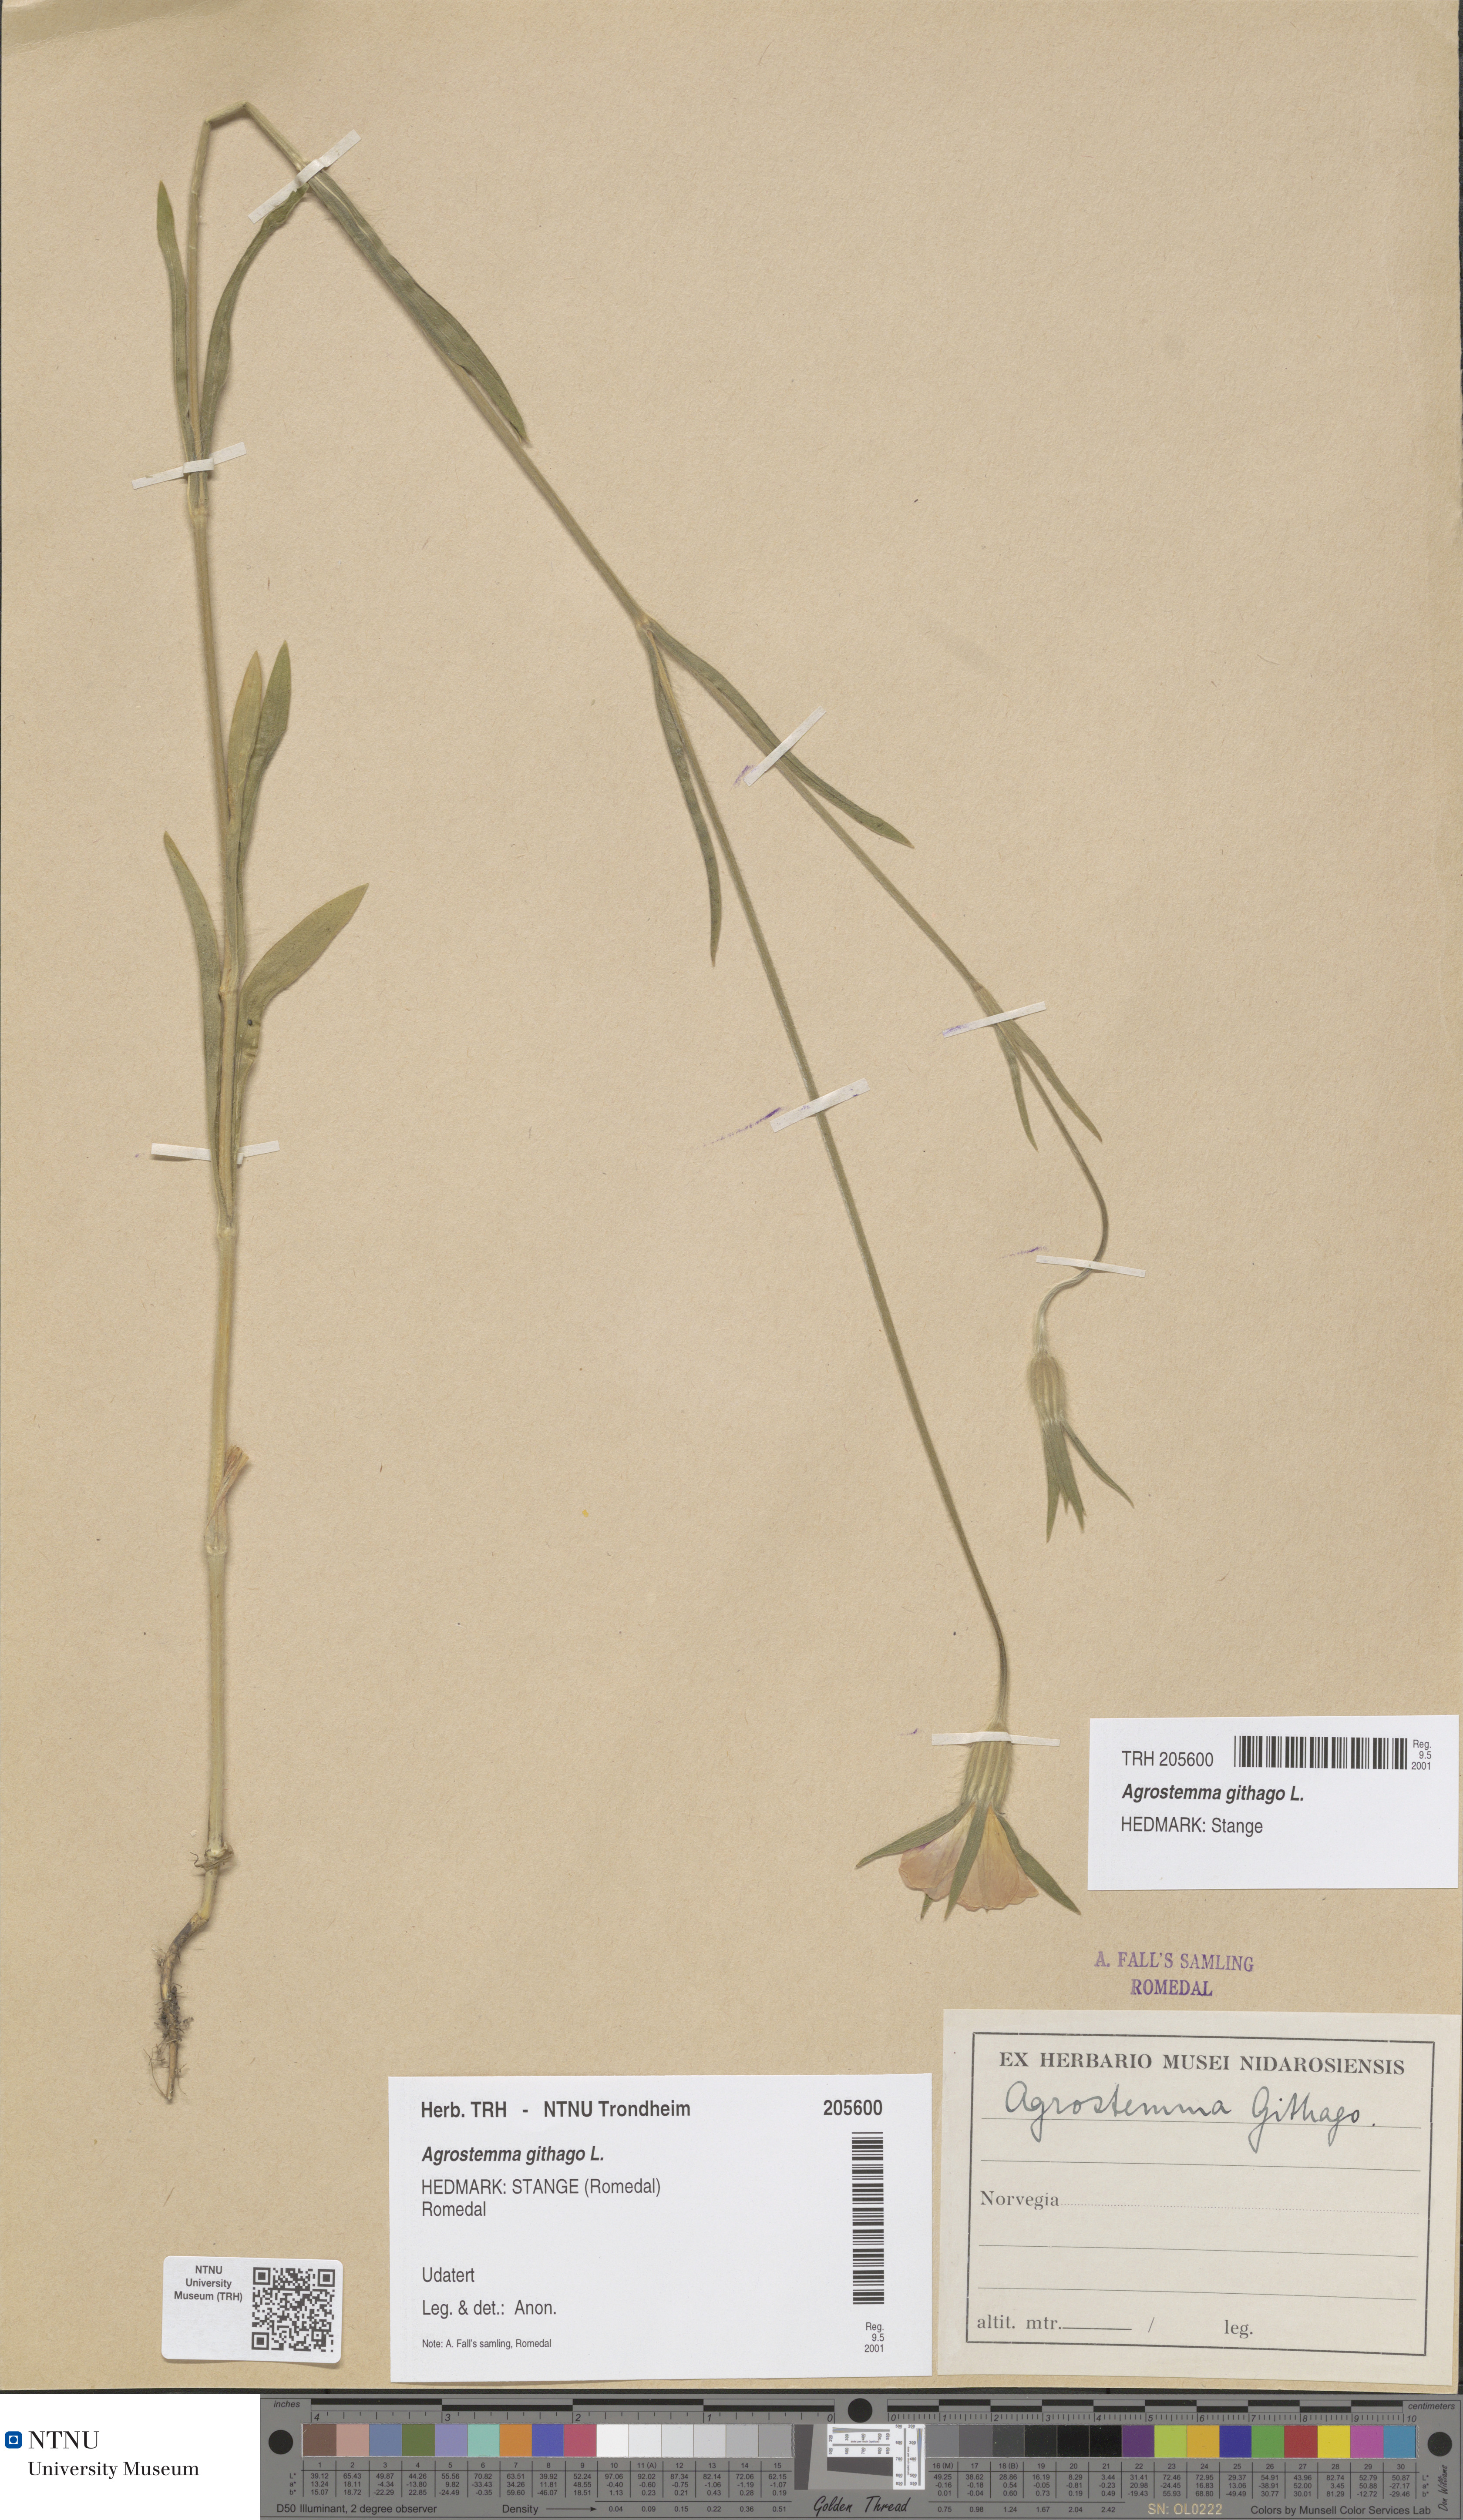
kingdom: Plantae
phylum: Tracheophyta
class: Magnoliopsida
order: Caryophyllales
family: Caryophyllaceae
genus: Agrostemma
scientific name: Agrostemma githago
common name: Common corncockle
